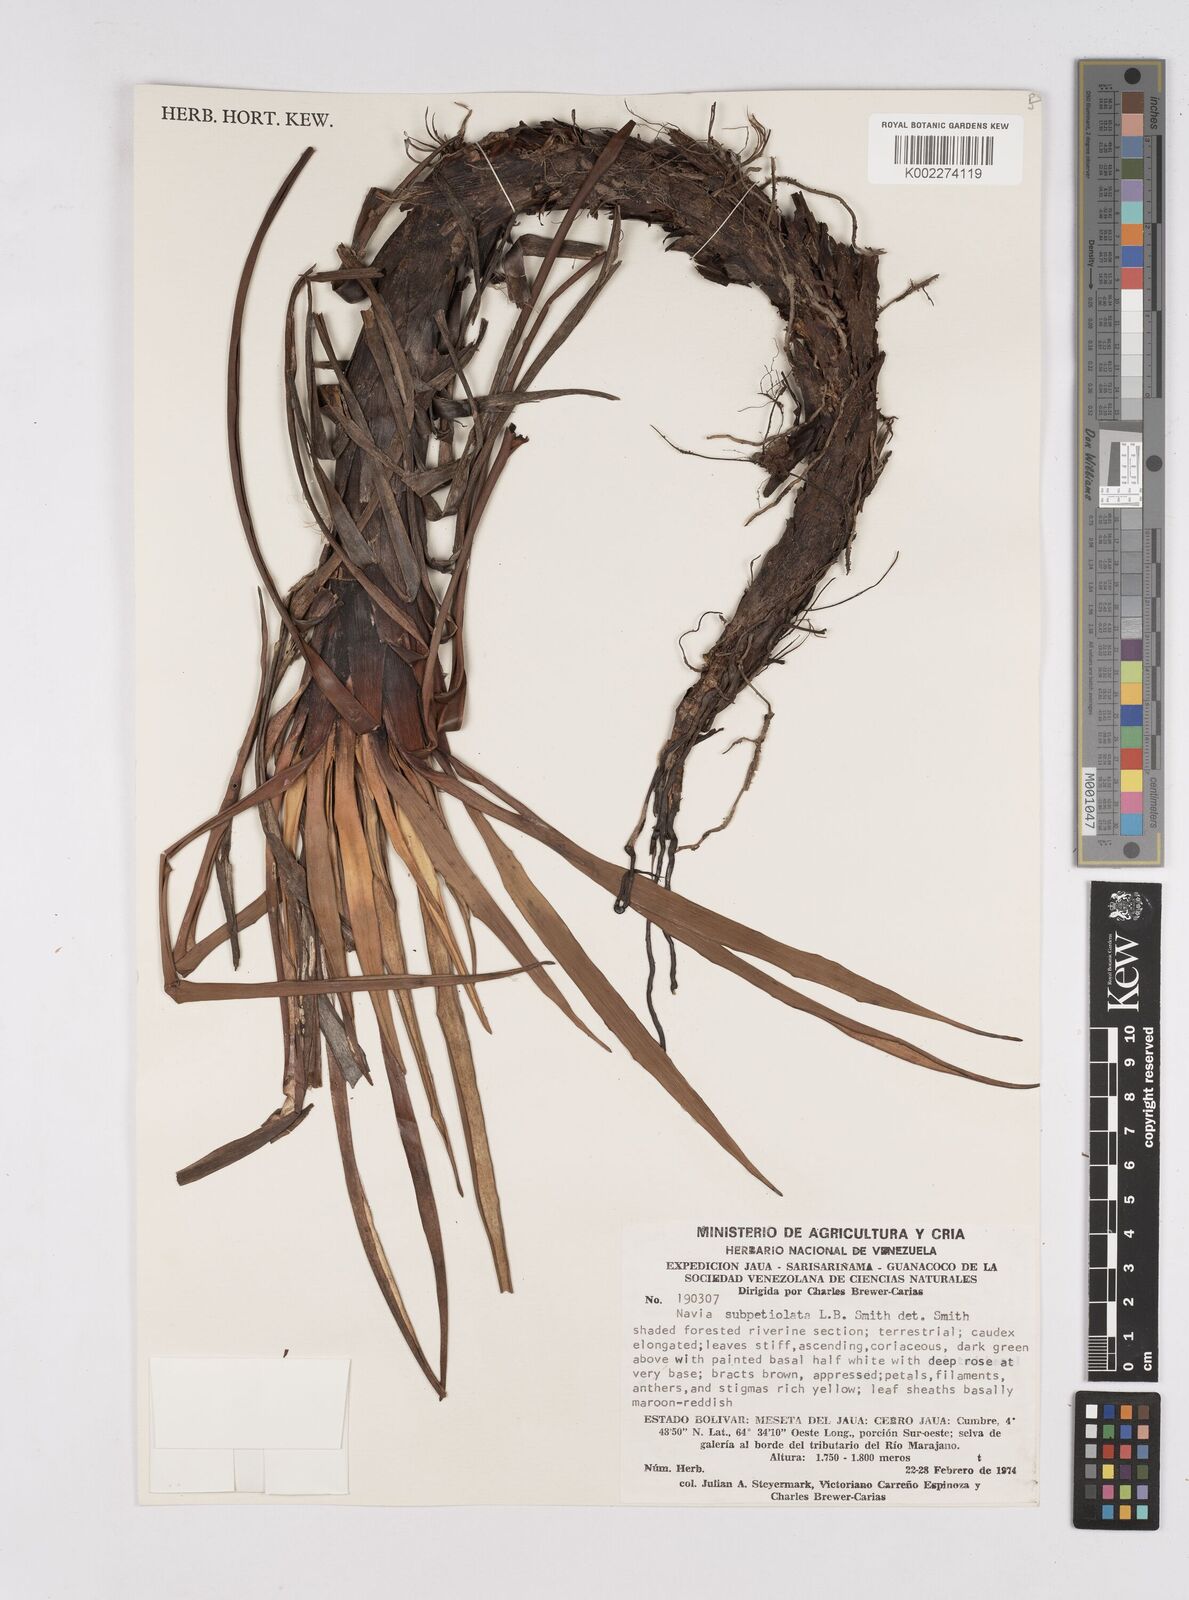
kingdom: Plantae
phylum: Tracheophyta
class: Liliopsida
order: Poales
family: Bromeliaceae
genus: Navia
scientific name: Navia subpetiolata
